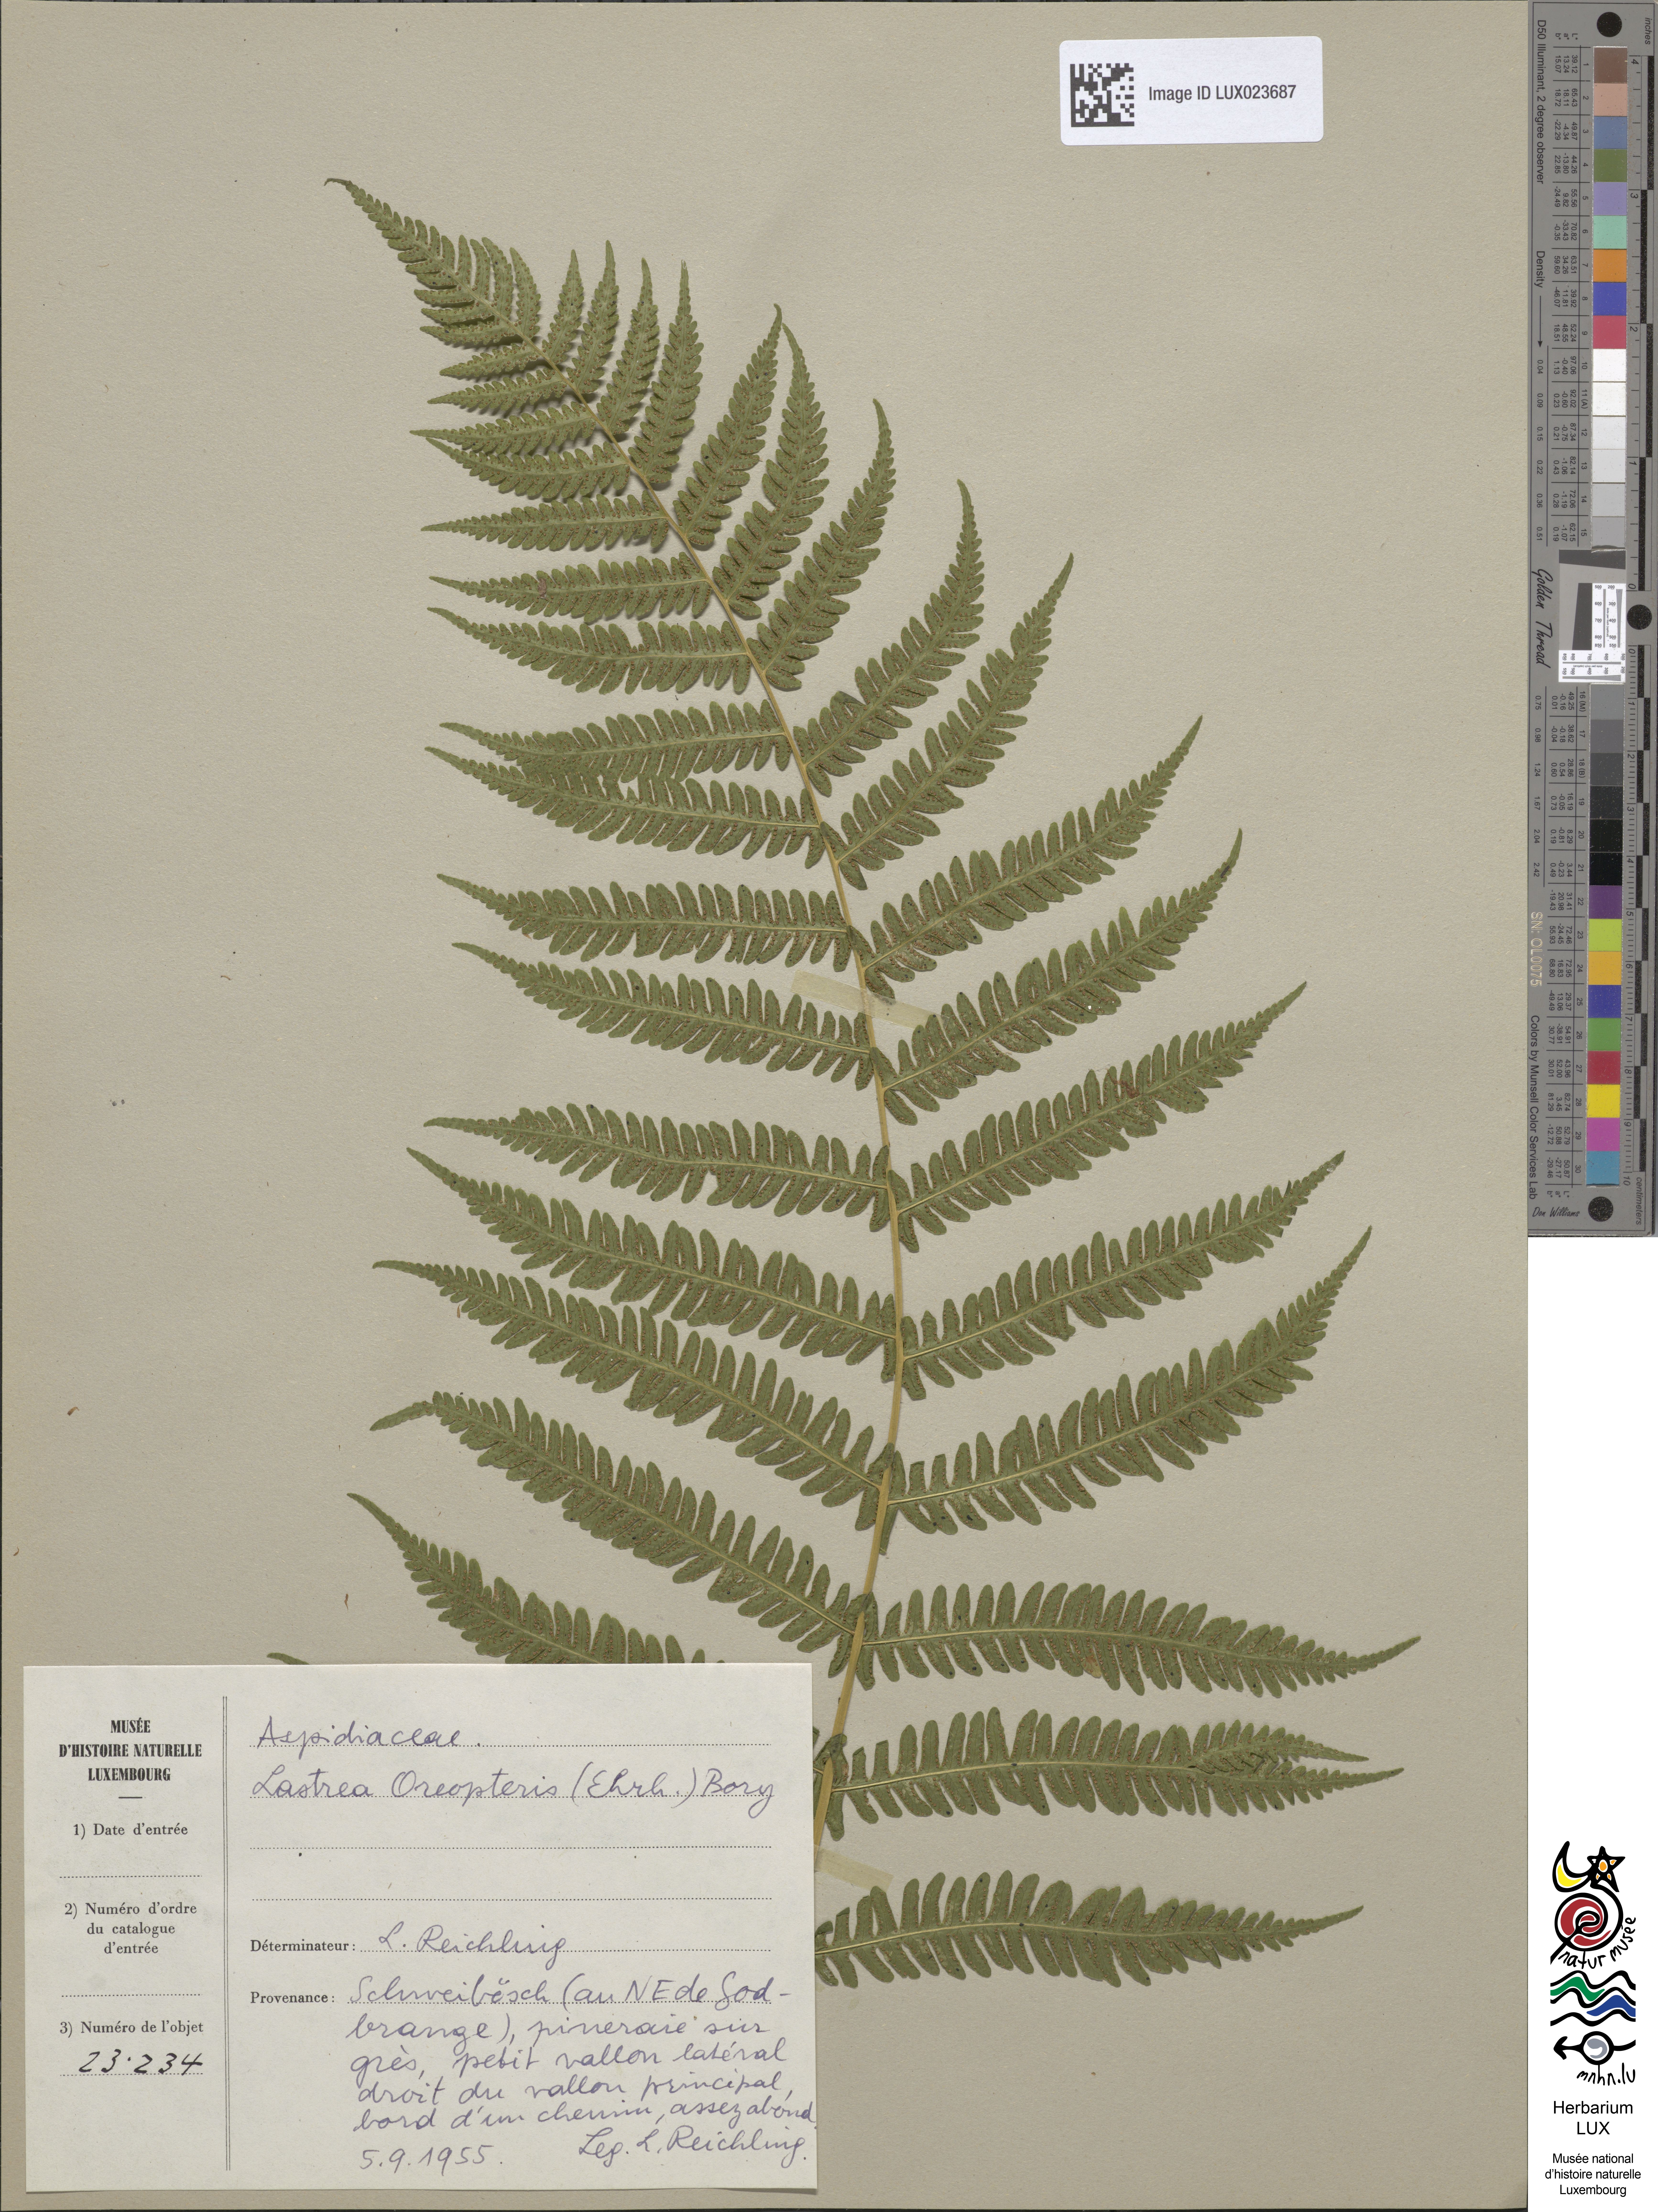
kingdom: Plantae
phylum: Tracheophyta
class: Polypodiopsida
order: Polypodiales
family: Thelypteridaceae
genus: Oreopteris
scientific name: Oreopteris limbosperma
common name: Lemon-scented fern
